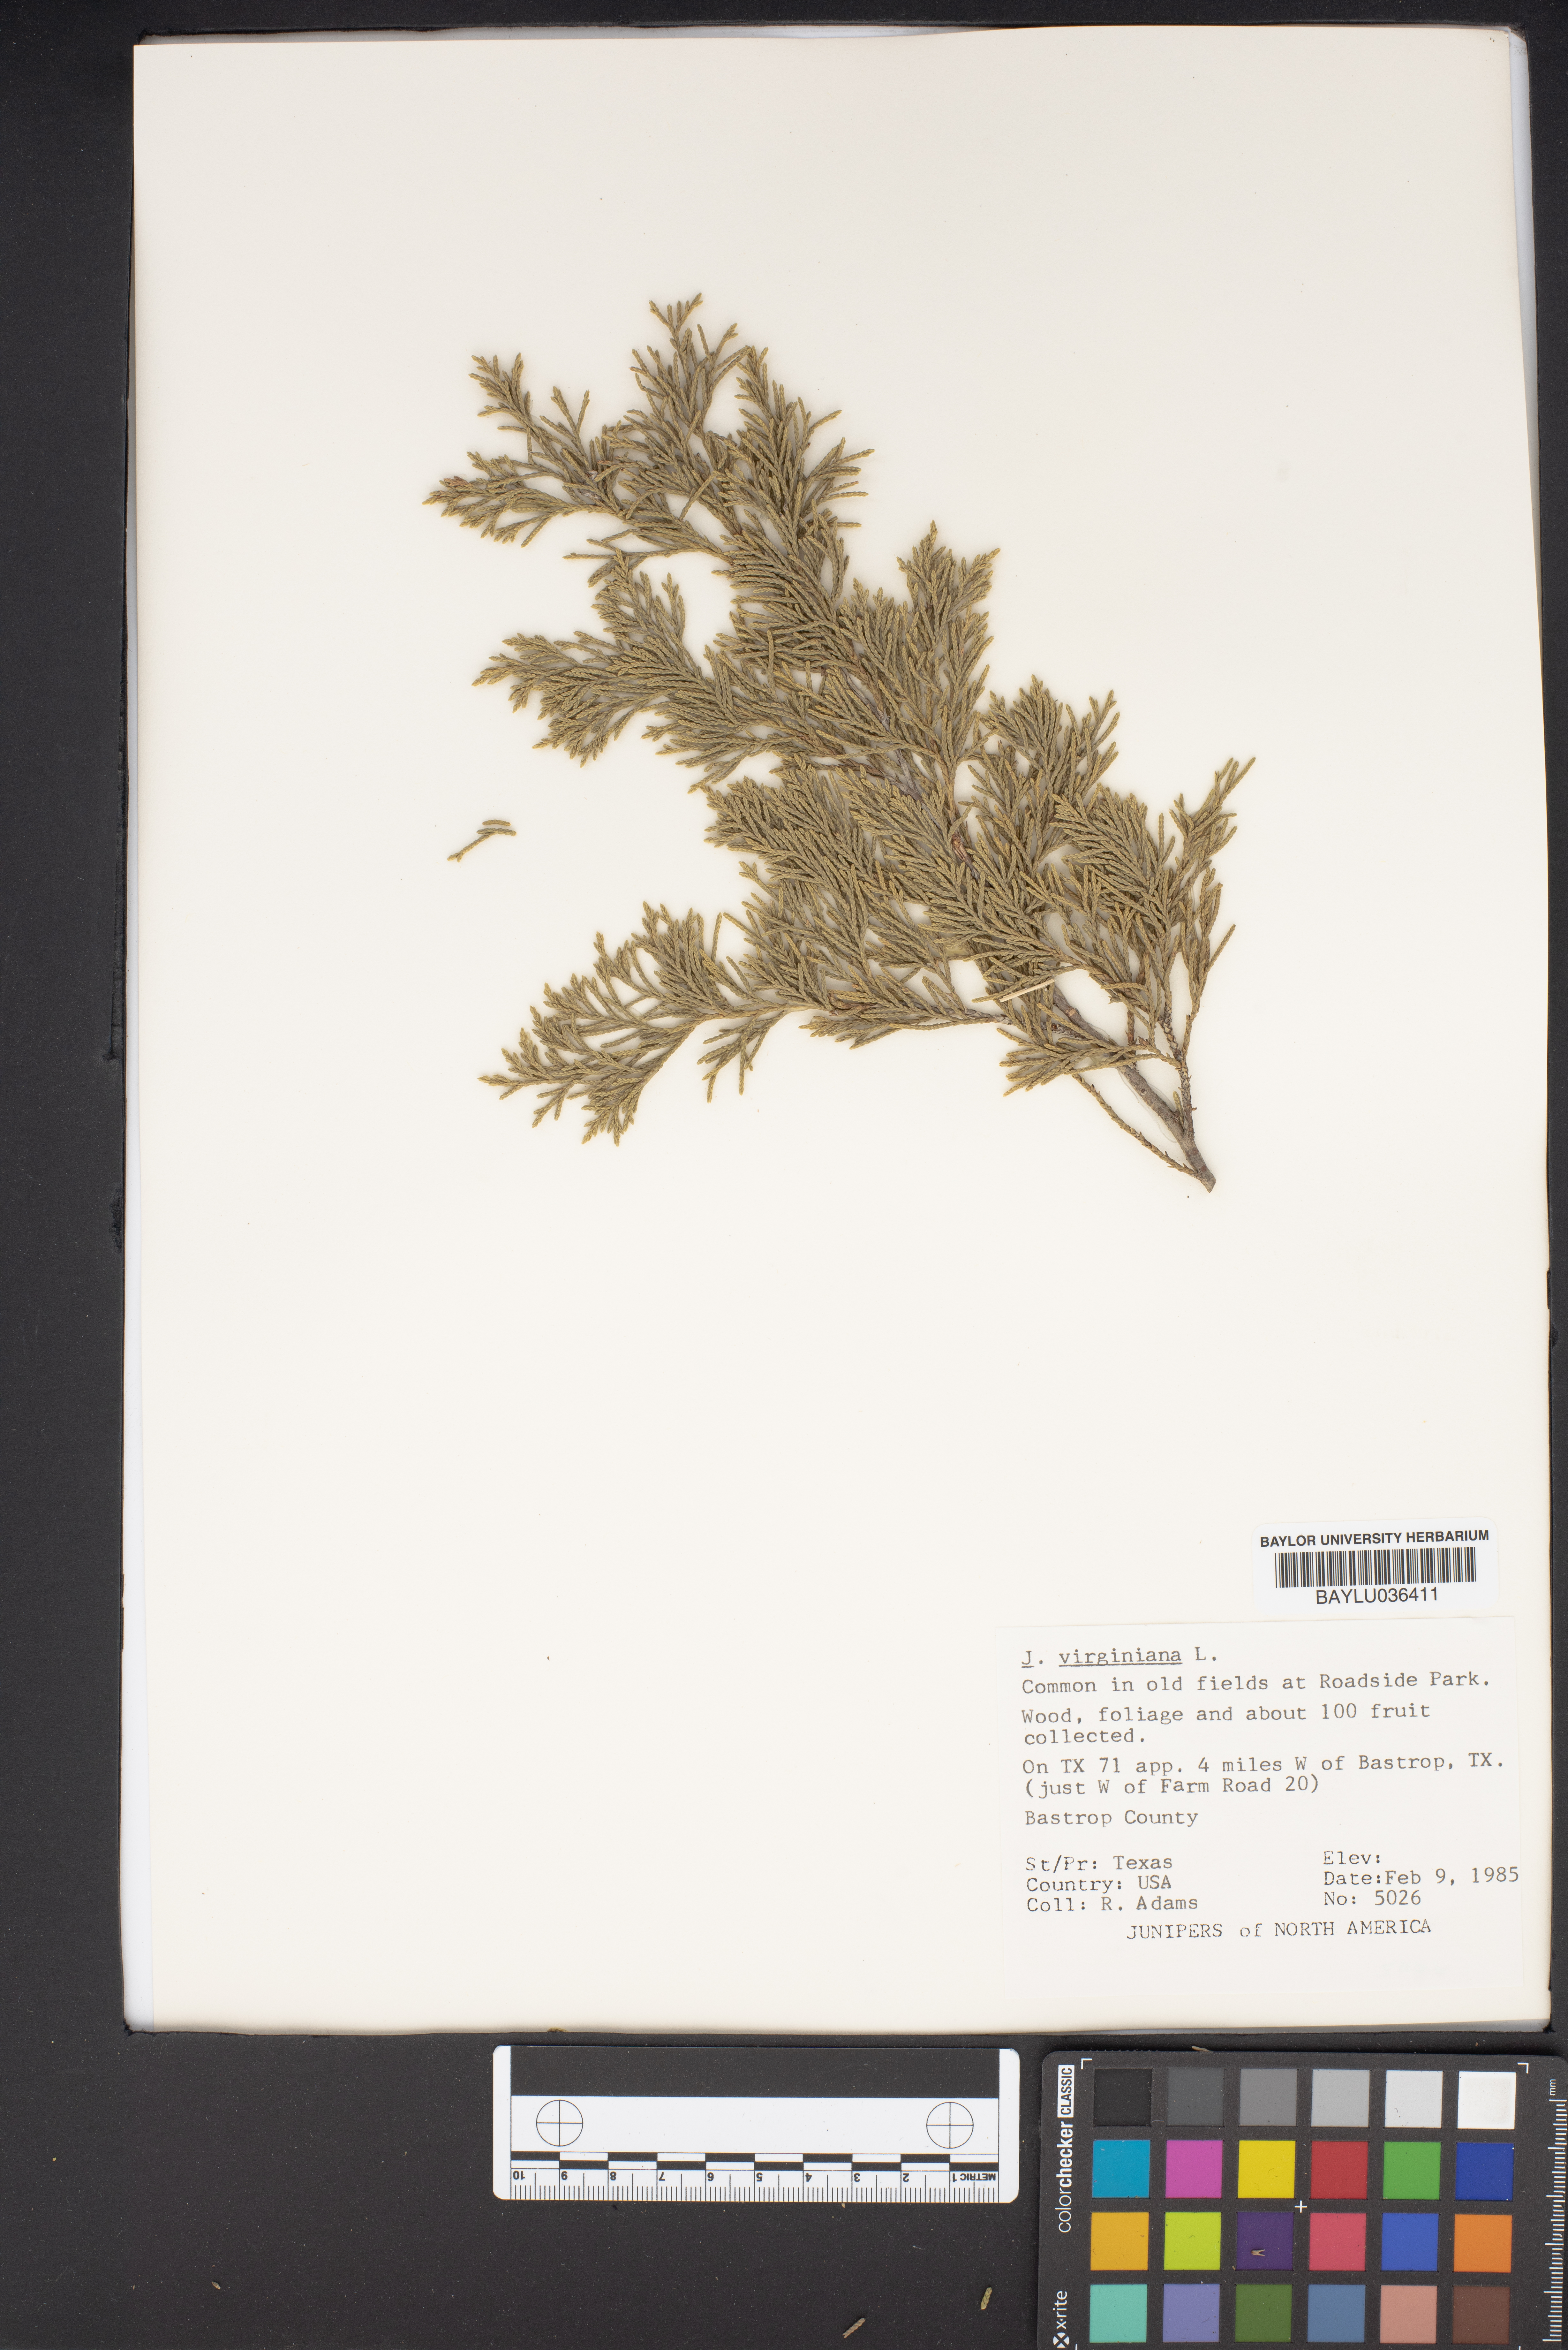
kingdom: Plantae
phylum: Tracheophyta
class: Pinopsida
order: Pinales
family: Cupressaceae
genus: Juniperus
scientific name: Juniperus virginiana
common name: Red juniper
